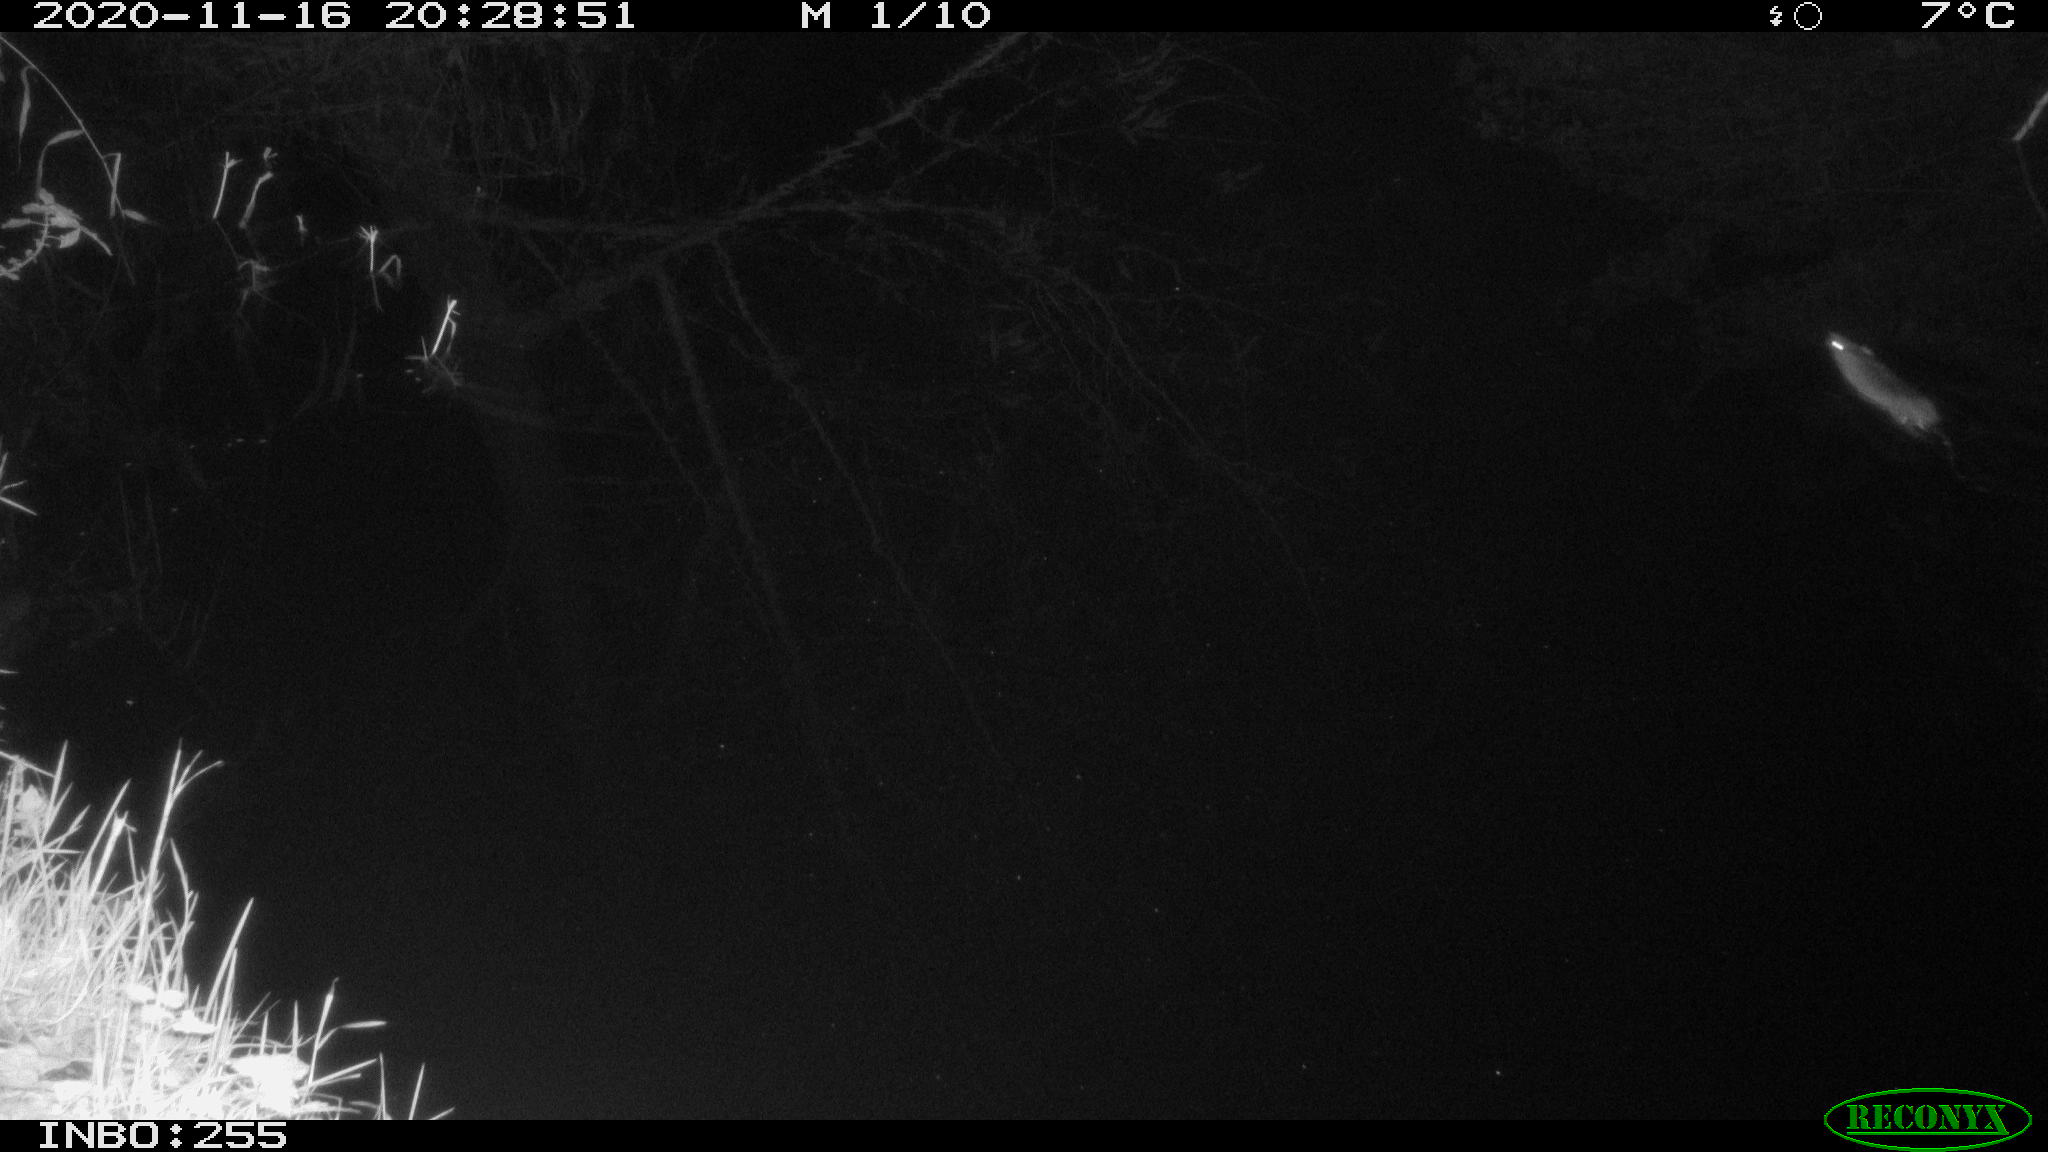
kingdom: Animalia
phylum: Chordata
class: Mammalia
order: Rodentia
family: Muridae
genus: Rattus
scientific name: Rattus norvegicus
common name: Brown rat
